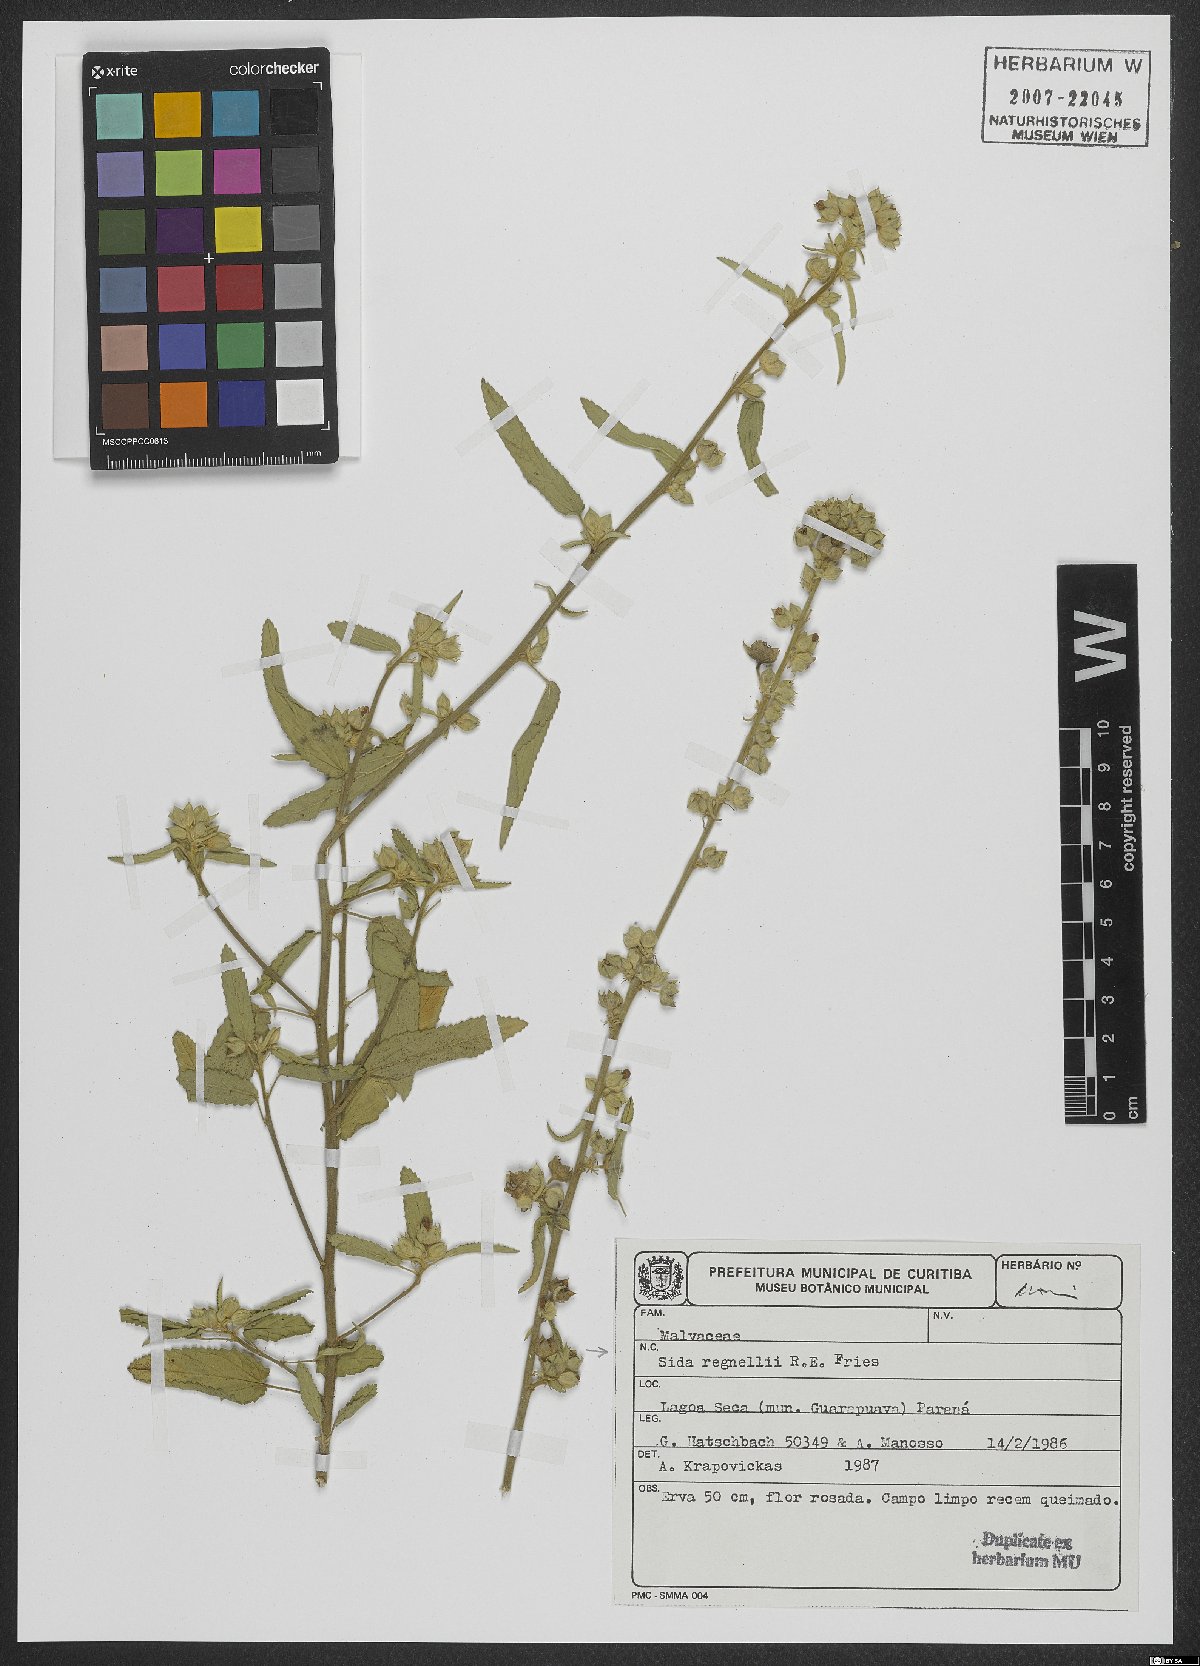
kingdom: Plantae
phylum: Tracheophyta
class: Magnoliopsida
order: Malvales
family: Malvaceae
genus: Sida
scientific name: Sida regnellii
